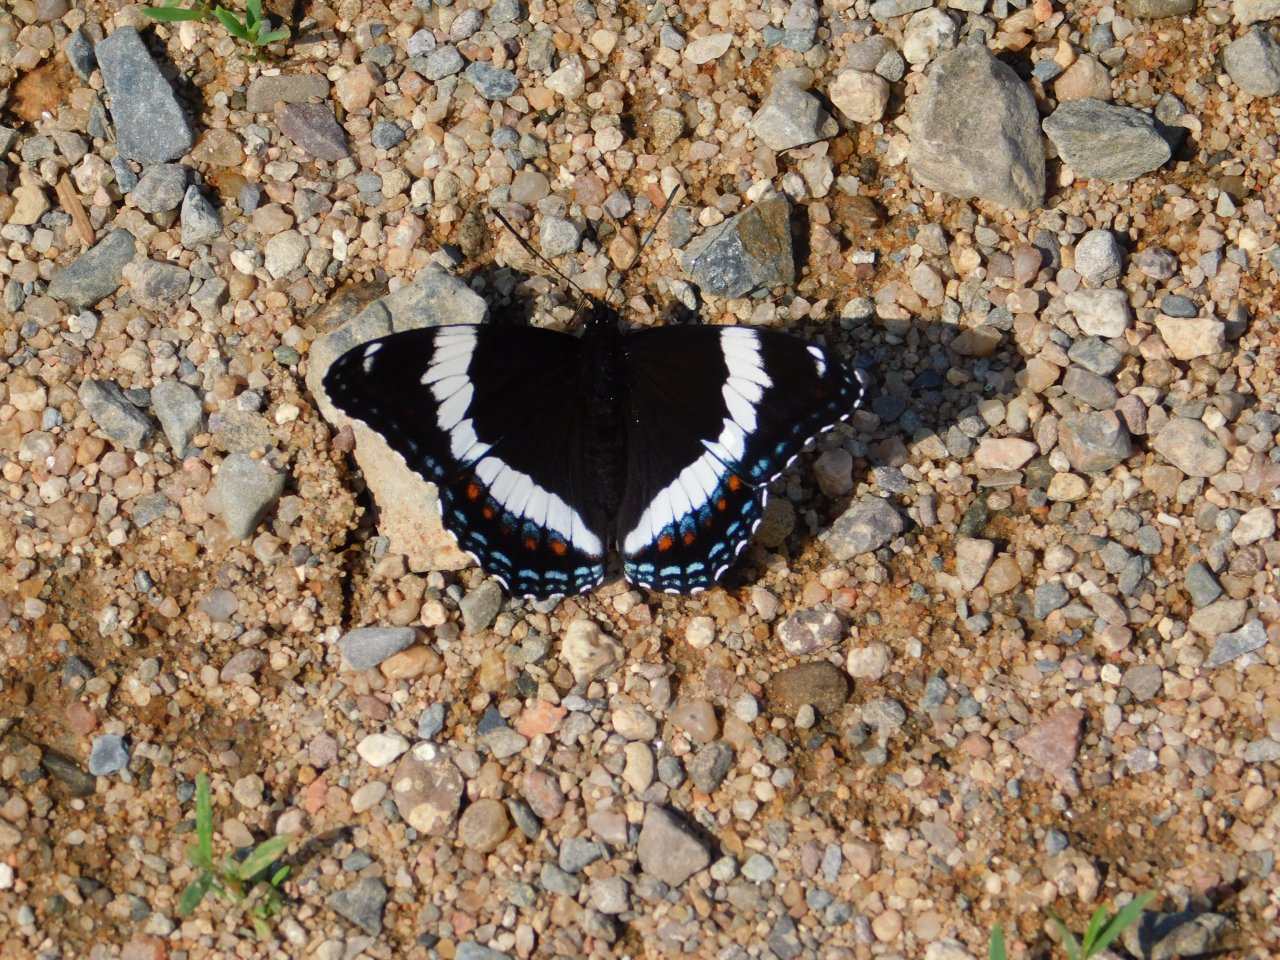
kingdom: Animalia
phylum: Arthropoda
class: Insecta
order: Lepidoptera
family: Nymphalidae
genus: Limenitis
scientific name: Limenitis arthemis
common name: Red-spotted Admiral
